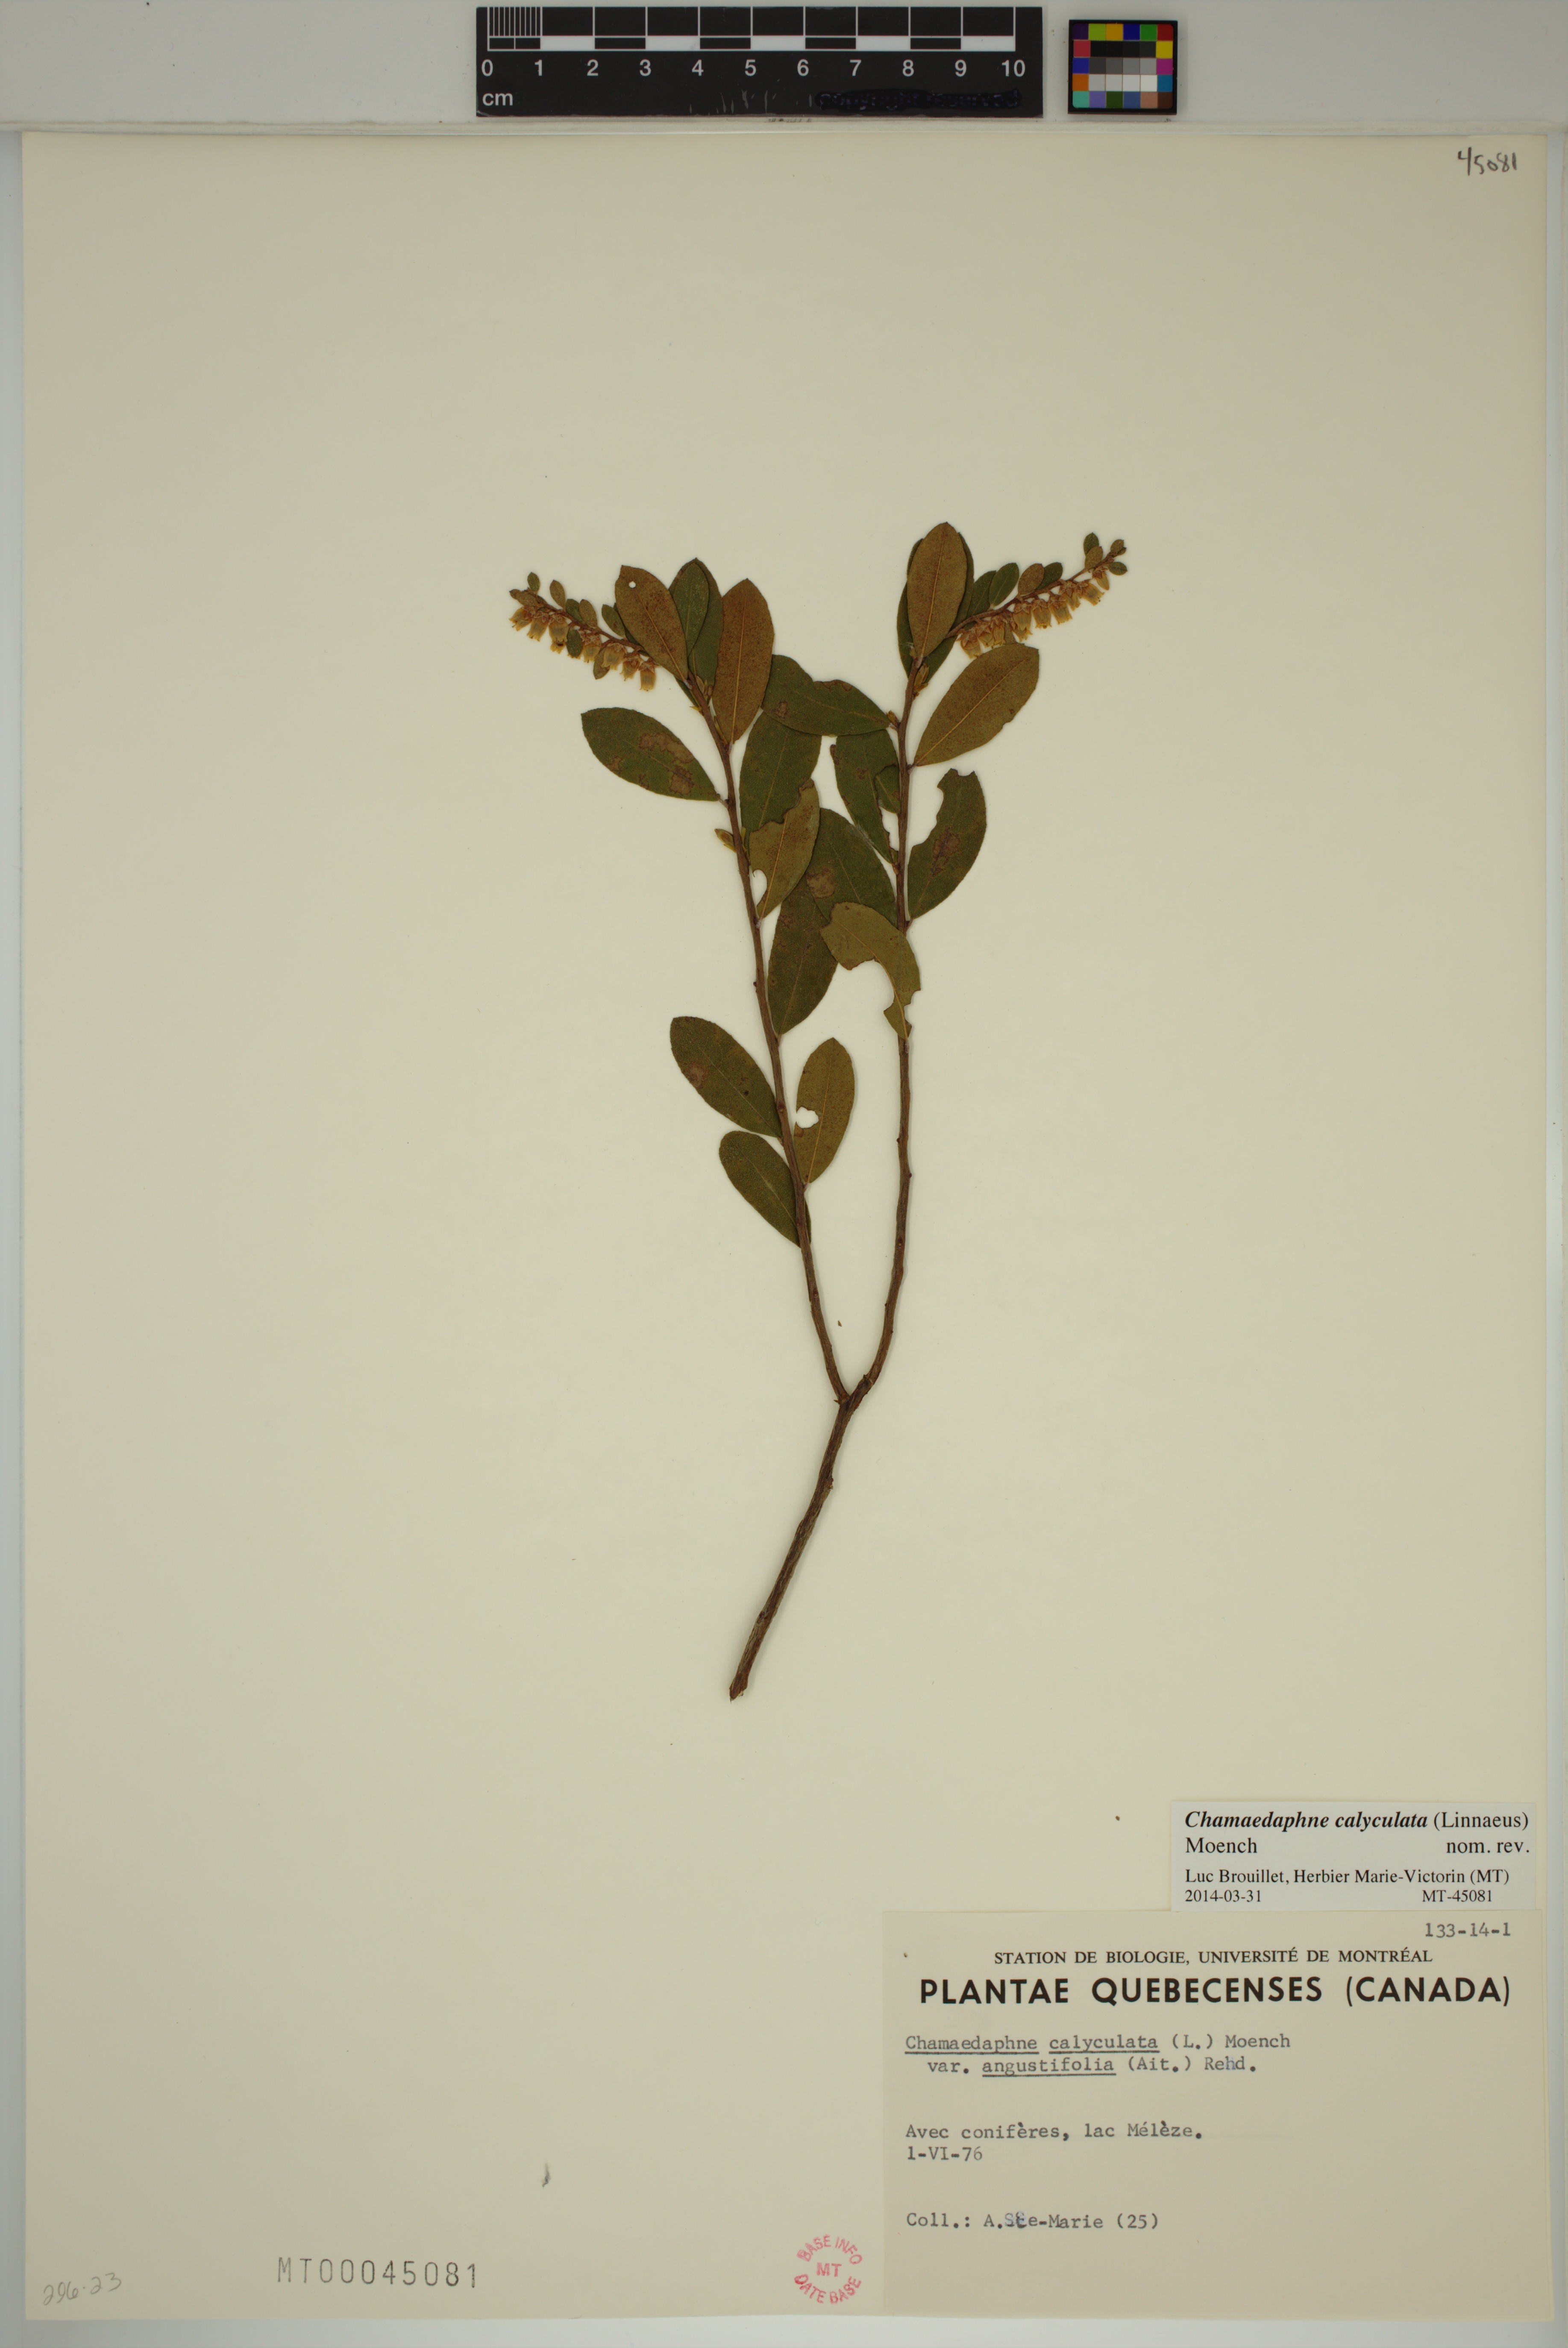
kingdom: Plantae
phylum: Tracheophyta
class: Magnoliopsida
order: Ericales
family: Ericaceae
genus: Chamaedaphne
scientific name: Chamaedaphne calyculata
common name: Leatherleaf
